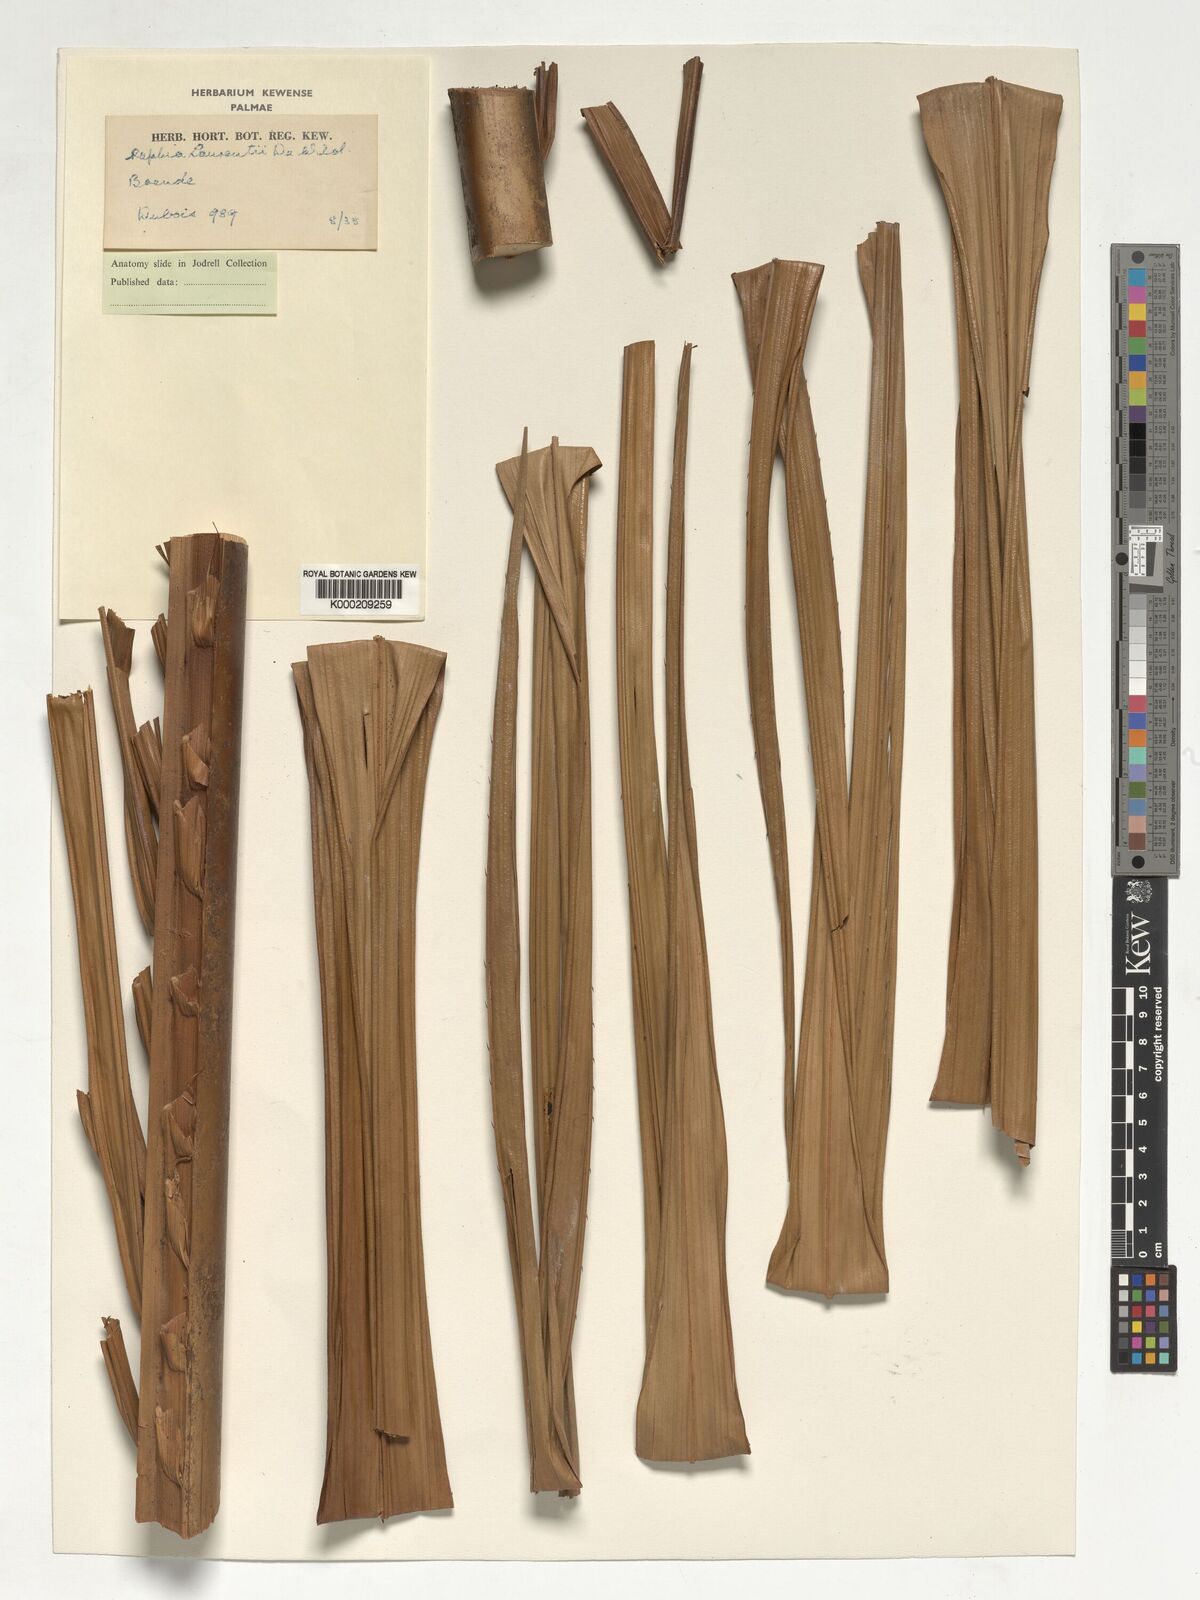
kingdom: Plantae
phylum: Tracheophyta
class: Liliopsida
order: Arecales
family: Arecaceae
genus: Raphia
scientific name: Raphia laurentii
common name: Raphia palm
